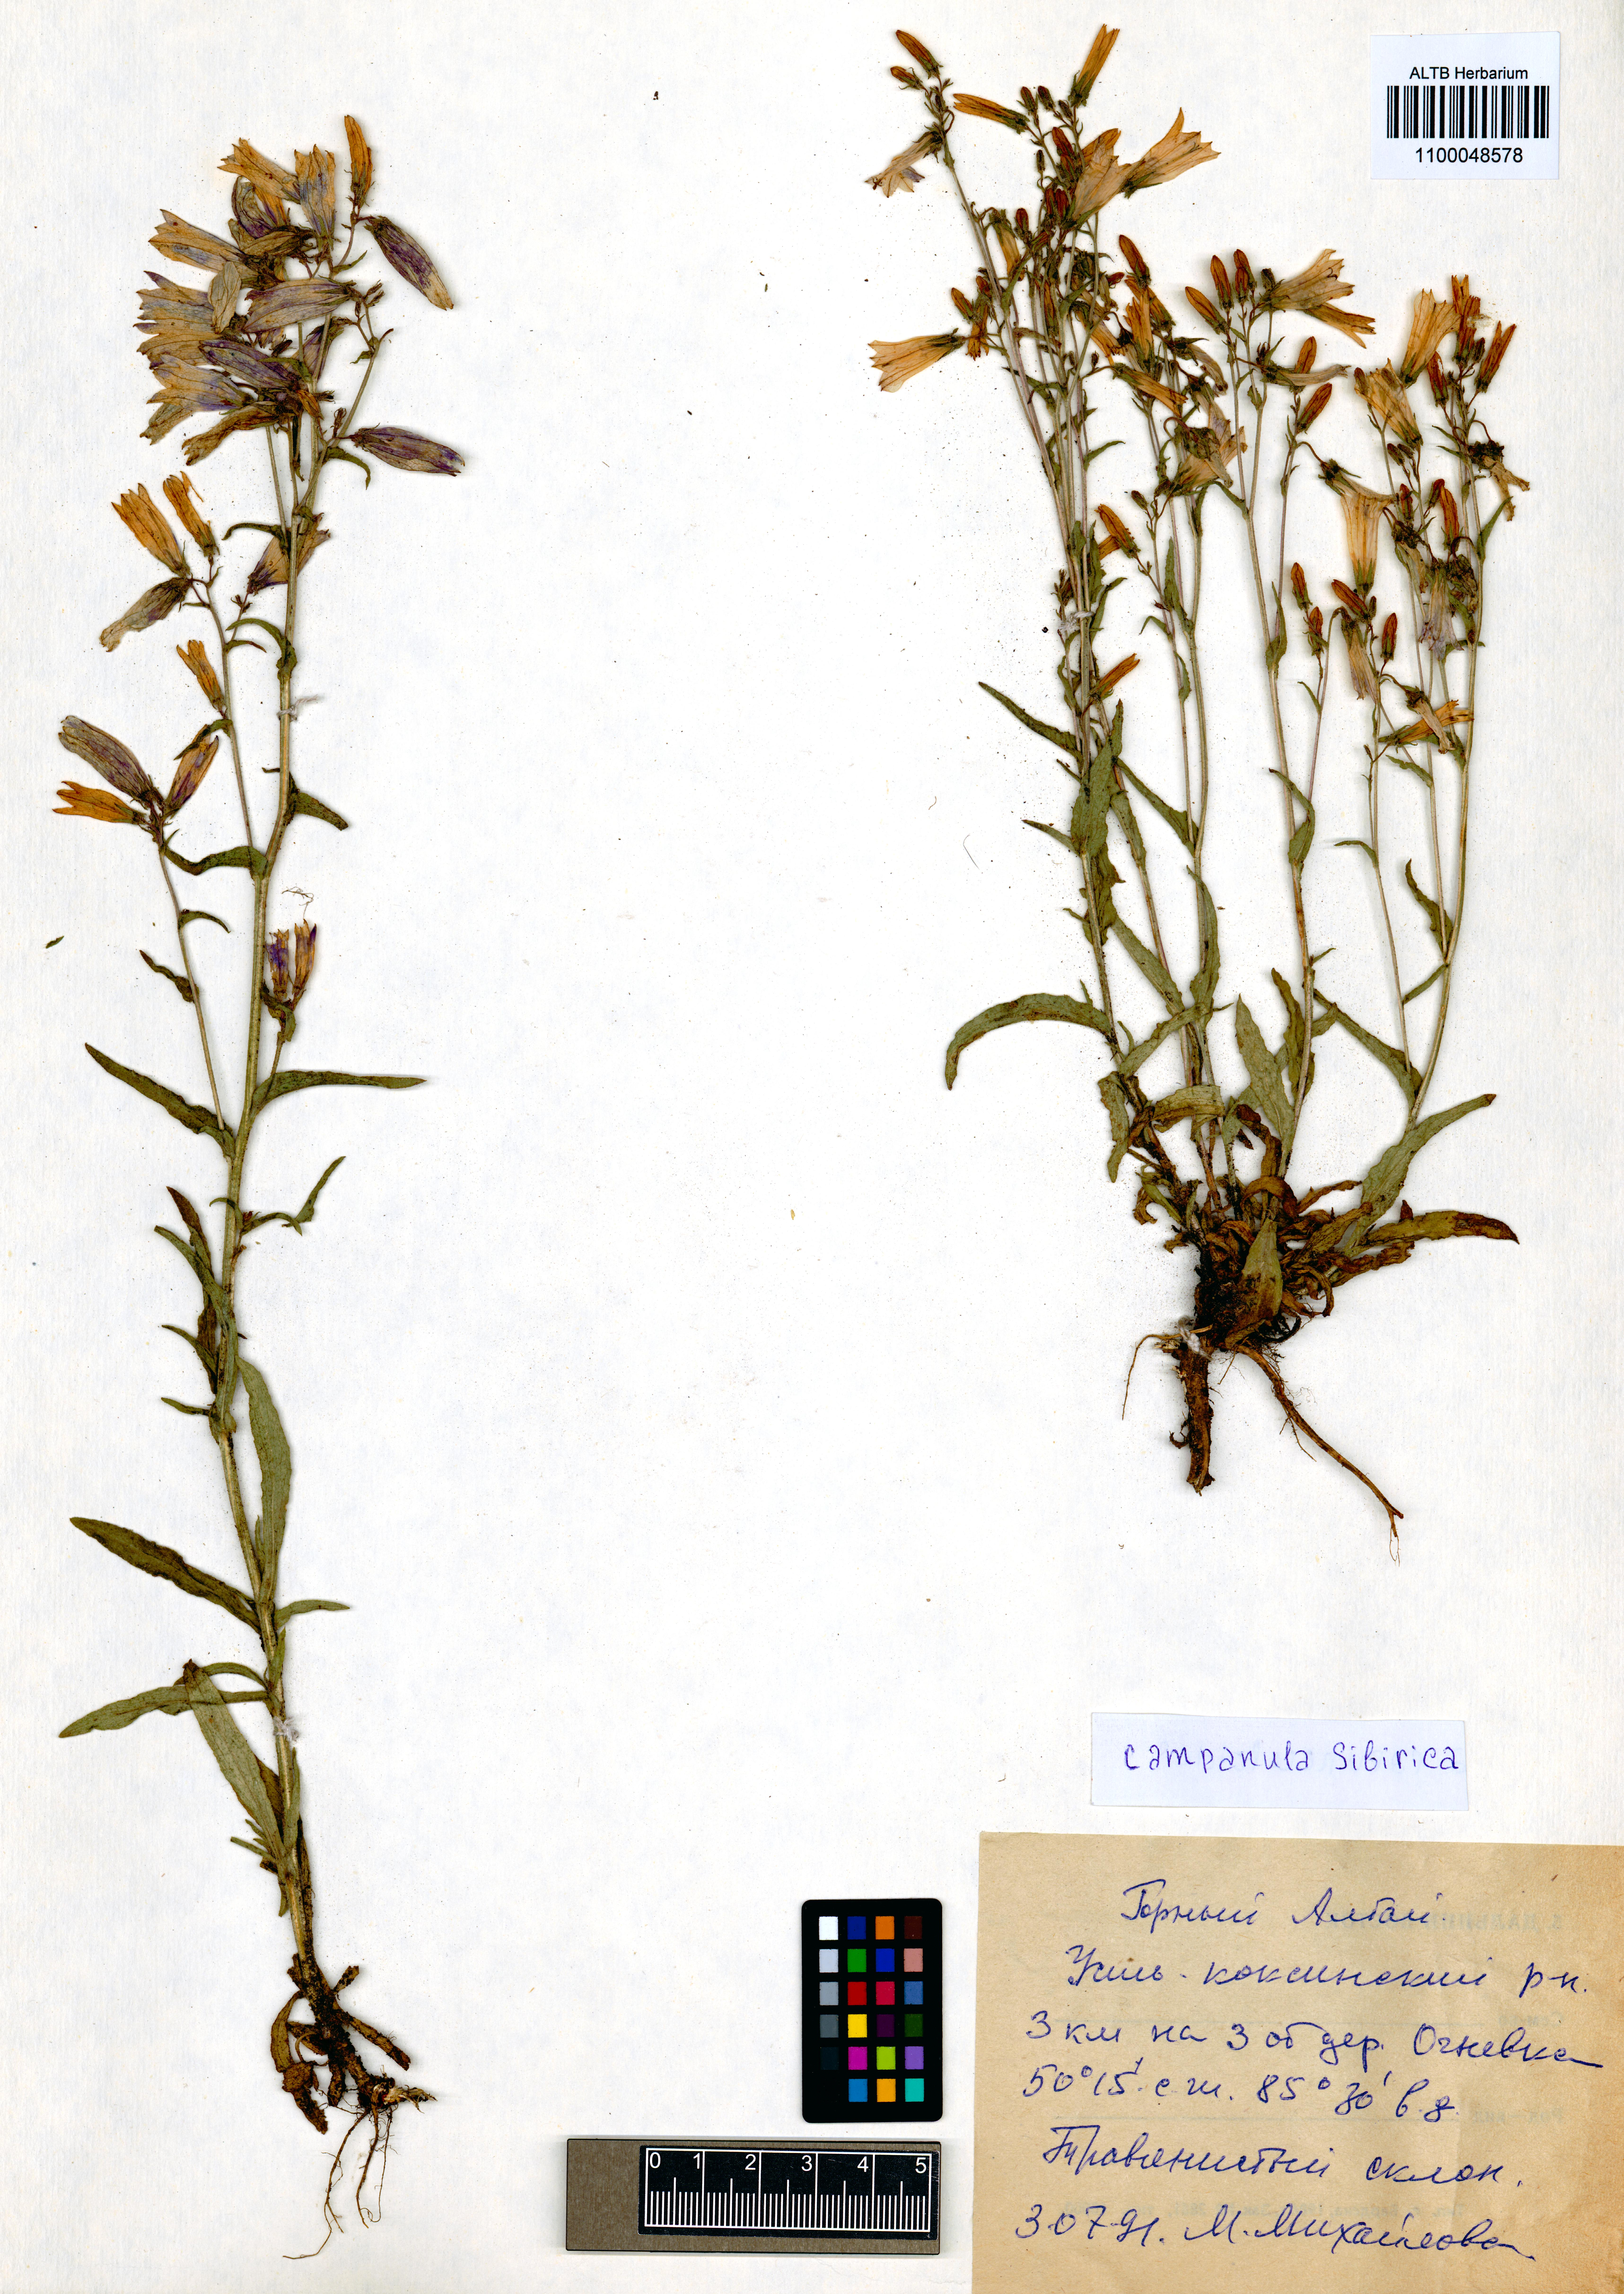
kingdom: Plantae
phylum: Tracheophyta
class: Magnoliopsida
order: Asterales
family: Campanulaceae
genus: Campanula
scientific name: Campanula sibirica
